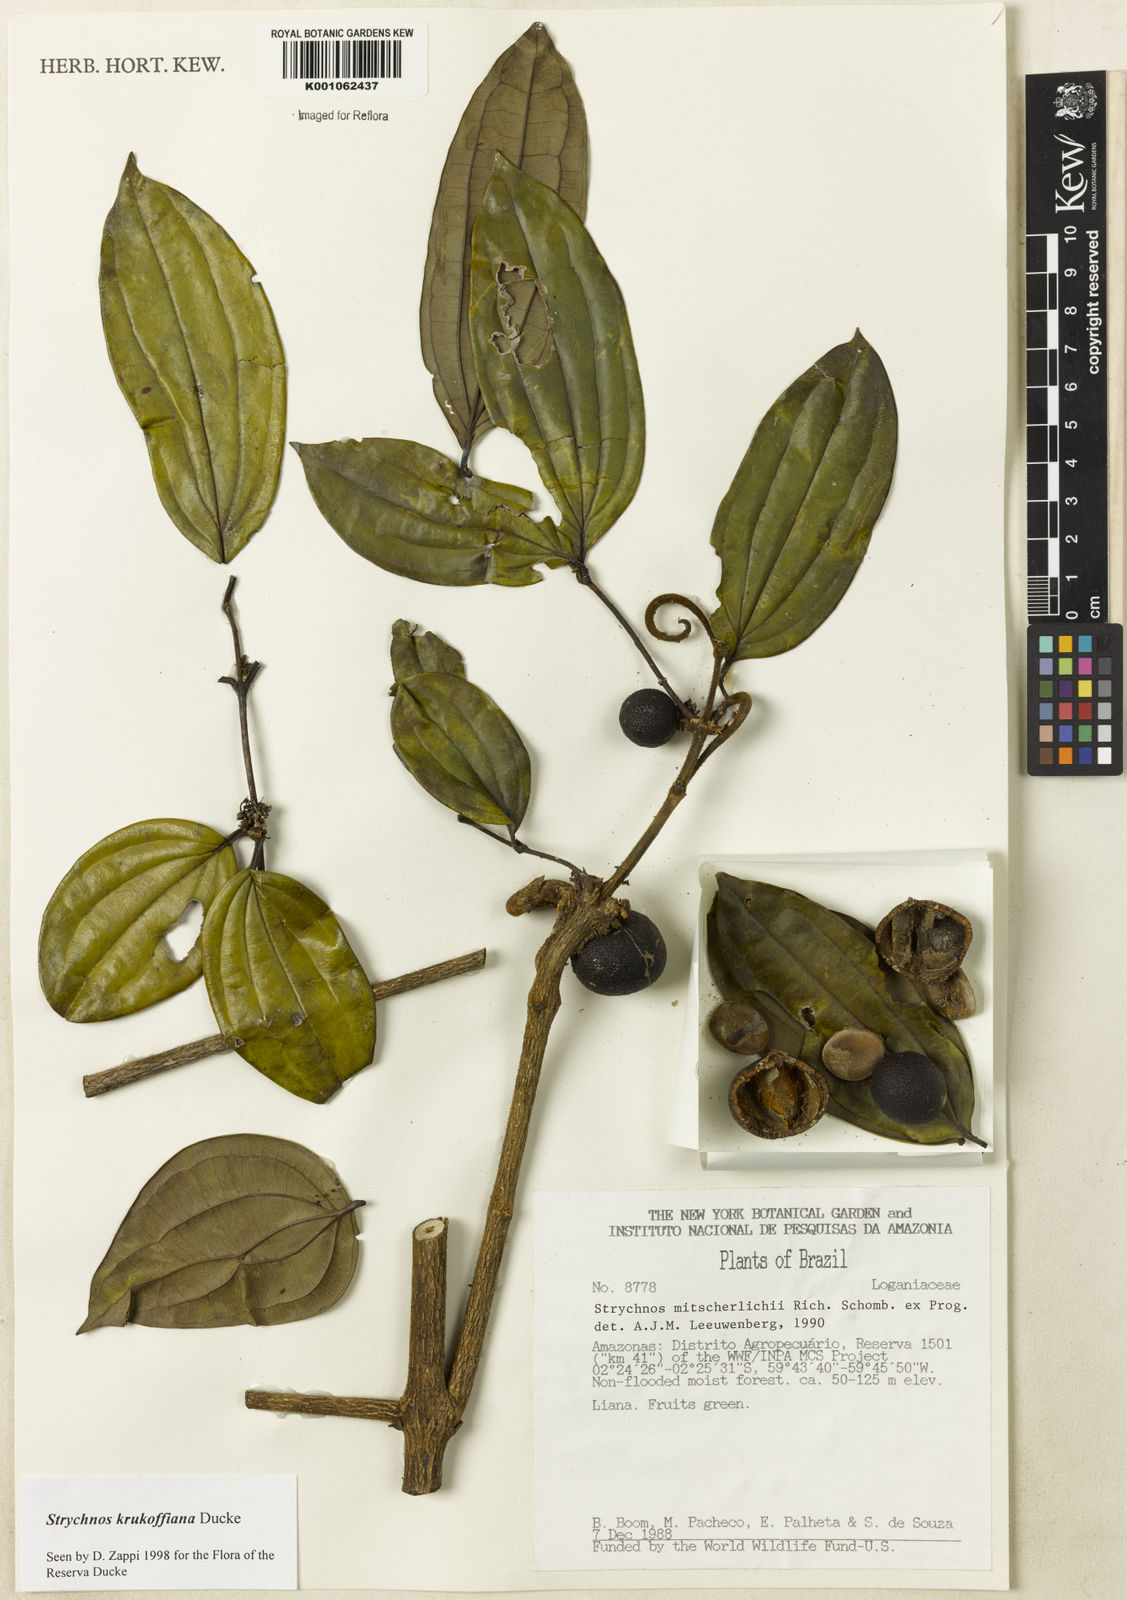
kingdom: Plantae
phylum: Tracheophyta
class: Magnoliopsida
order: Gentianales
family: Loganiaceae
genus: Strychnos
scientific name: Strychnos krukoffiana
